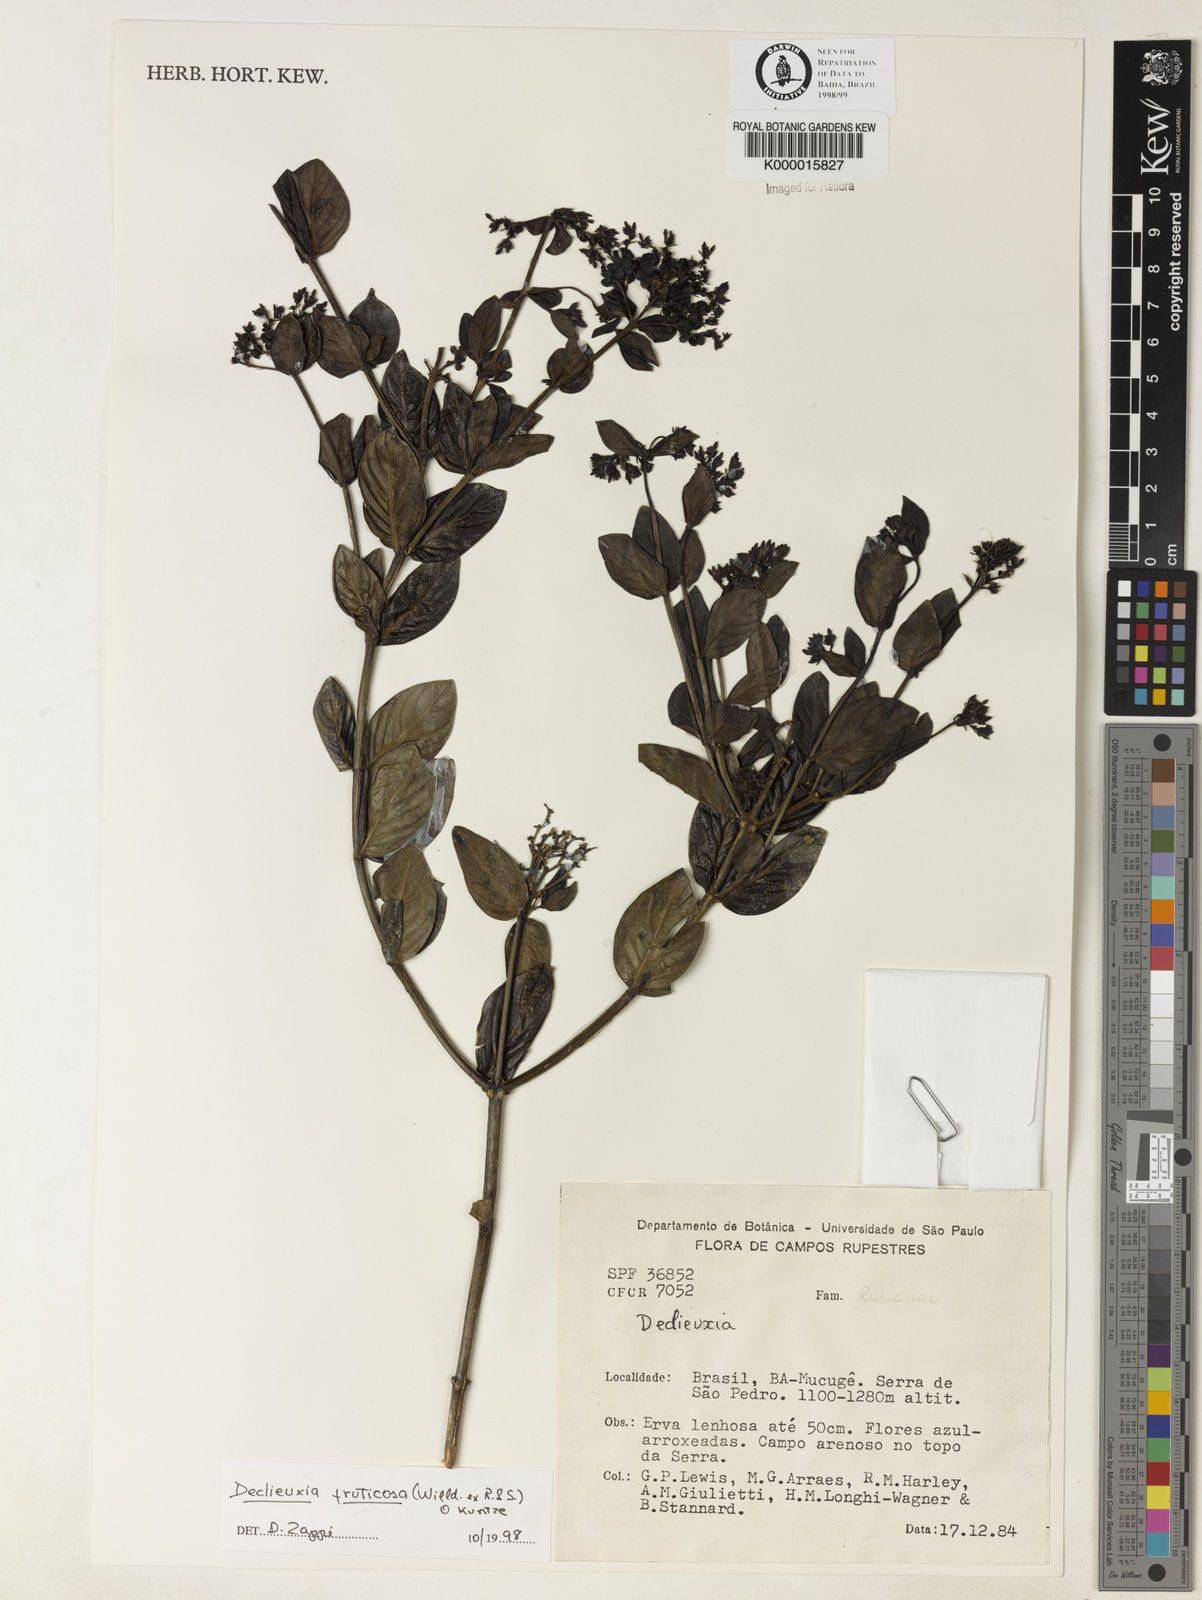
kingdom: Plantae
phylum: Tracheophyta
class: Magnoliopsida
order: Gentianales
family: Rubiaceae
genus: Declieuxia
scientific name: Declieuxia fruticosa
